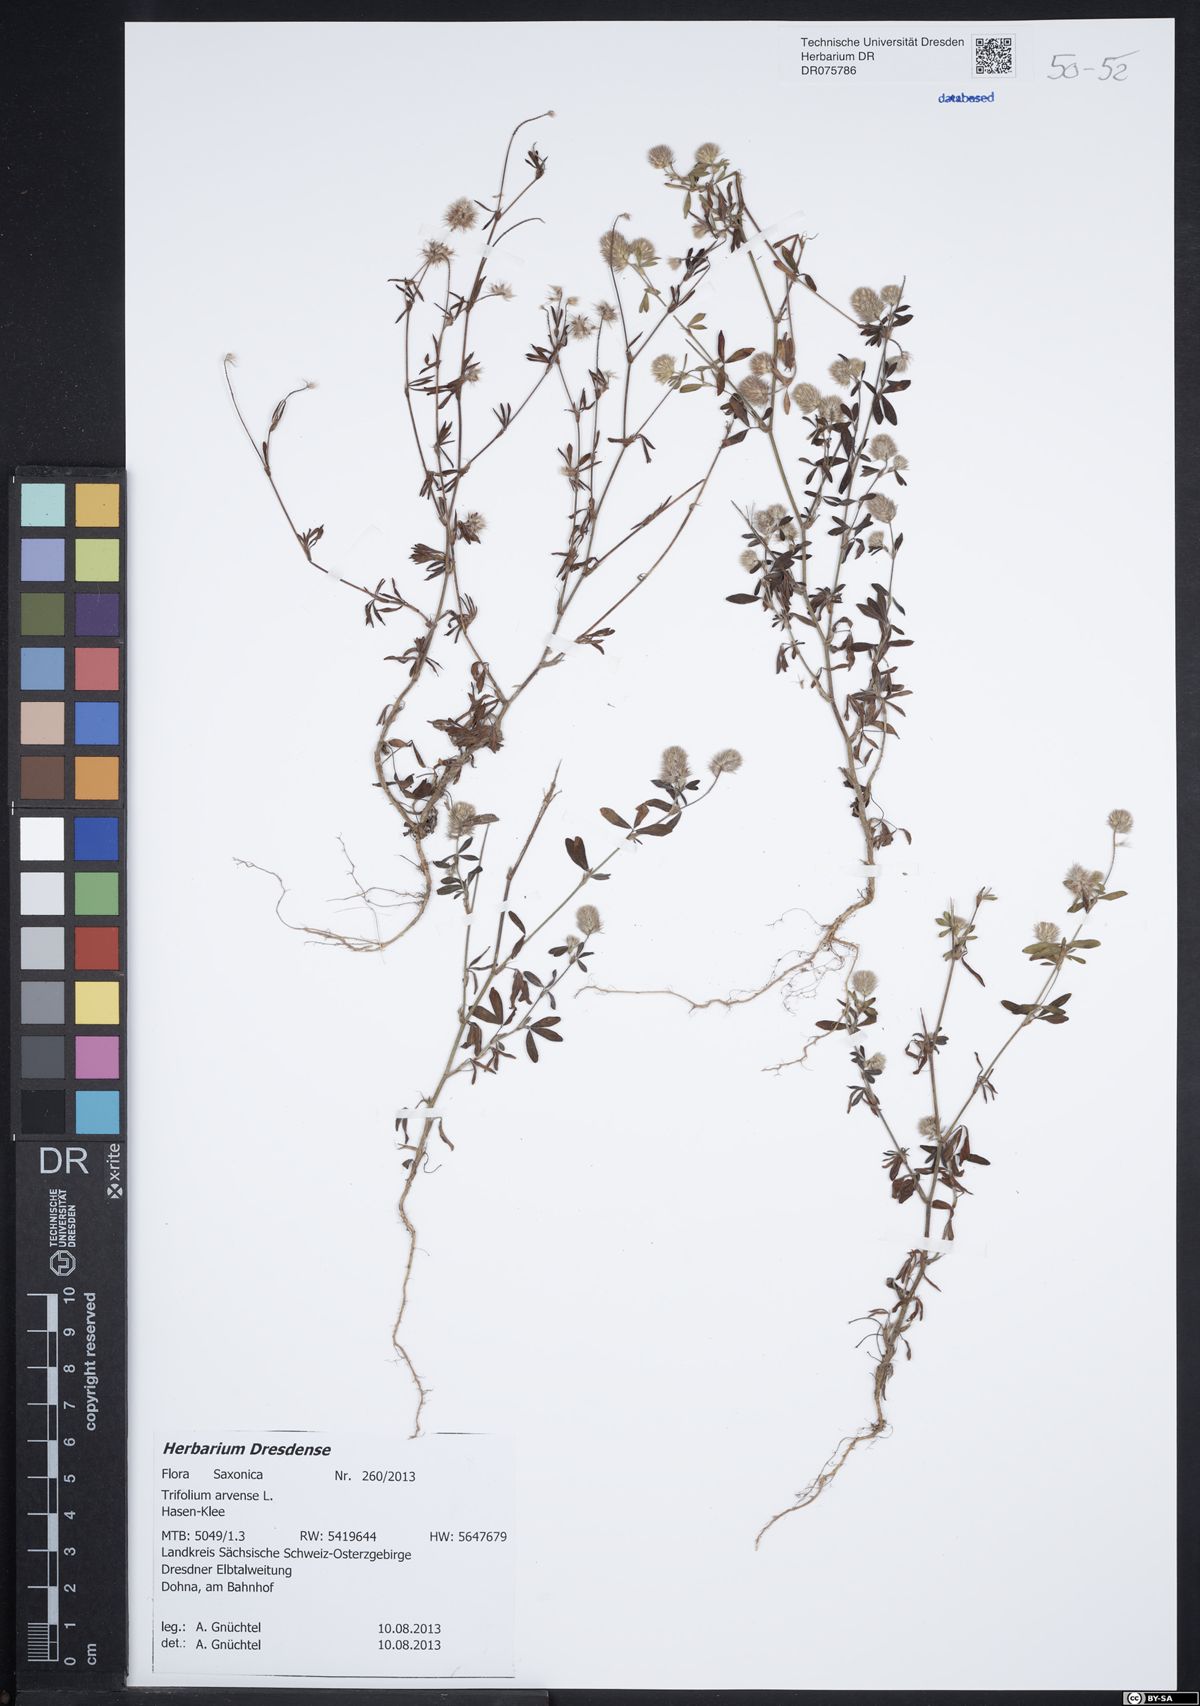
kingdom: Plantae
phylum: Tracheophyta
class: Magnoliopsida
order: Fabales
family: Fabaceae
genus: Trifolium
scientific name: Trifolium arvense
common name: Hare's-foot clover
